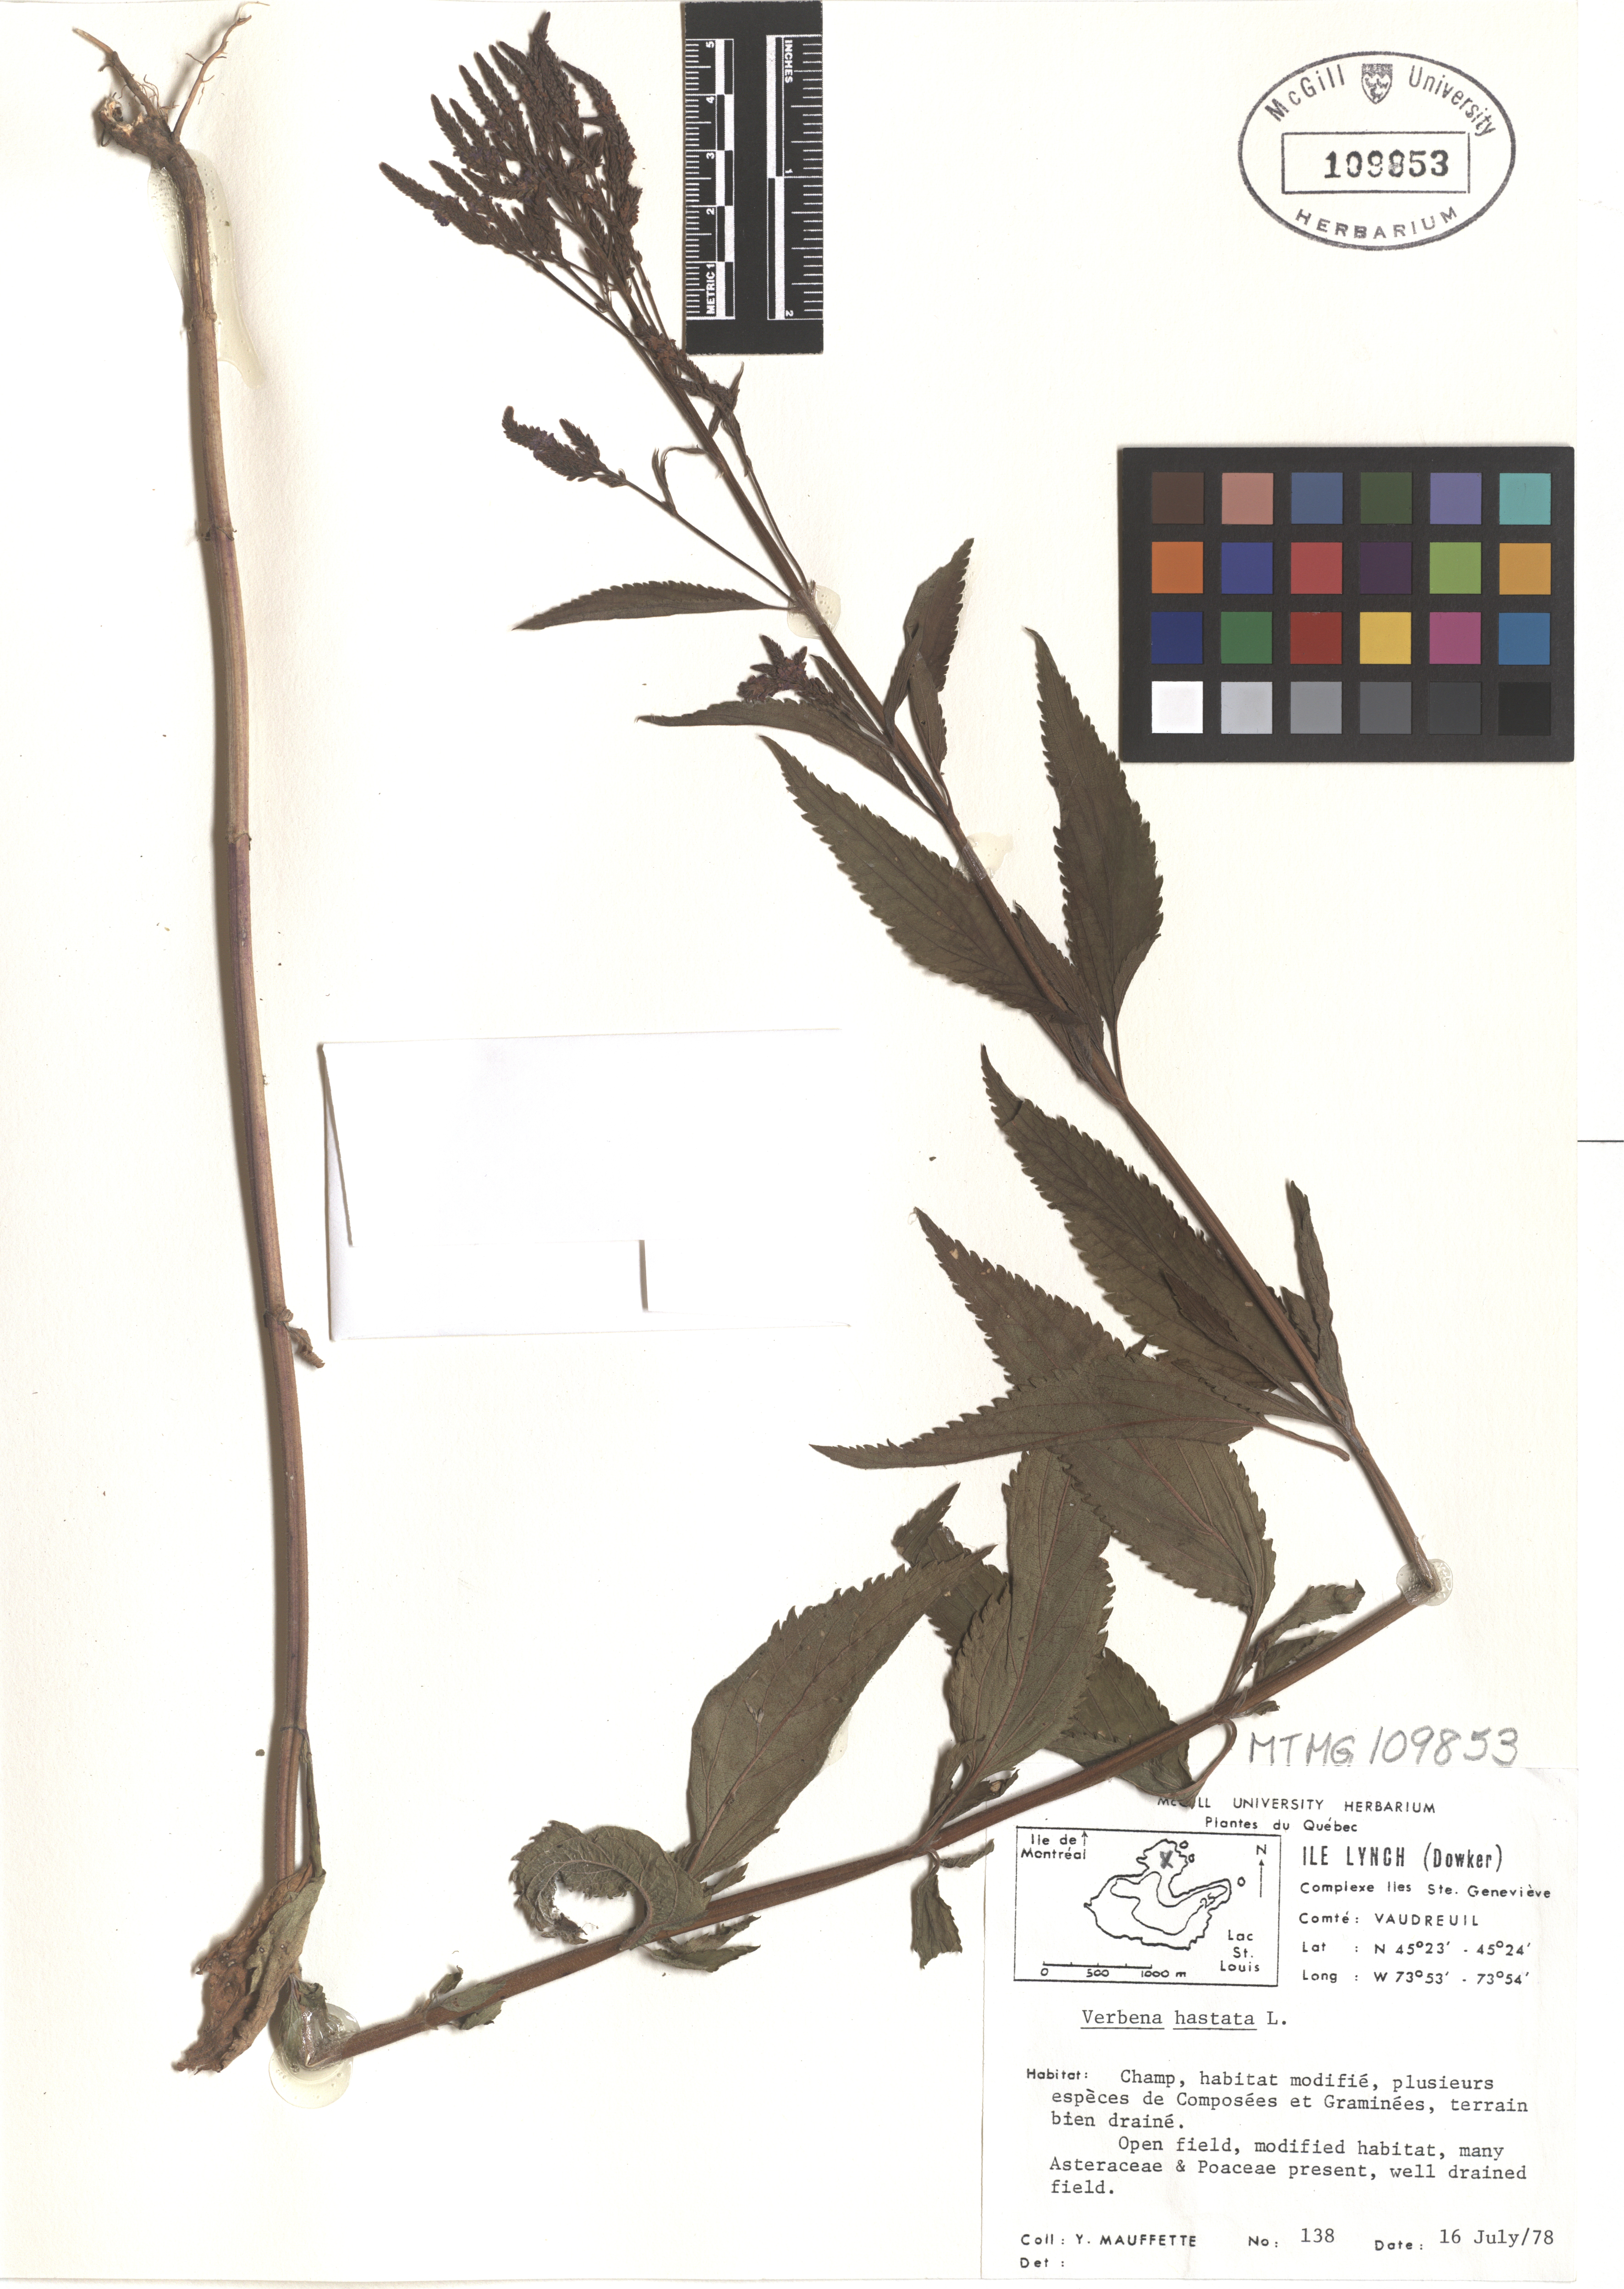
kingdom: Plantae
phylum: Tracheophyta
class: Magnoliopsida
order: Lamiales
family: Verbenaceae
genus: Verbena
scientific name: Verbena hastata
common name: American blue vervain
